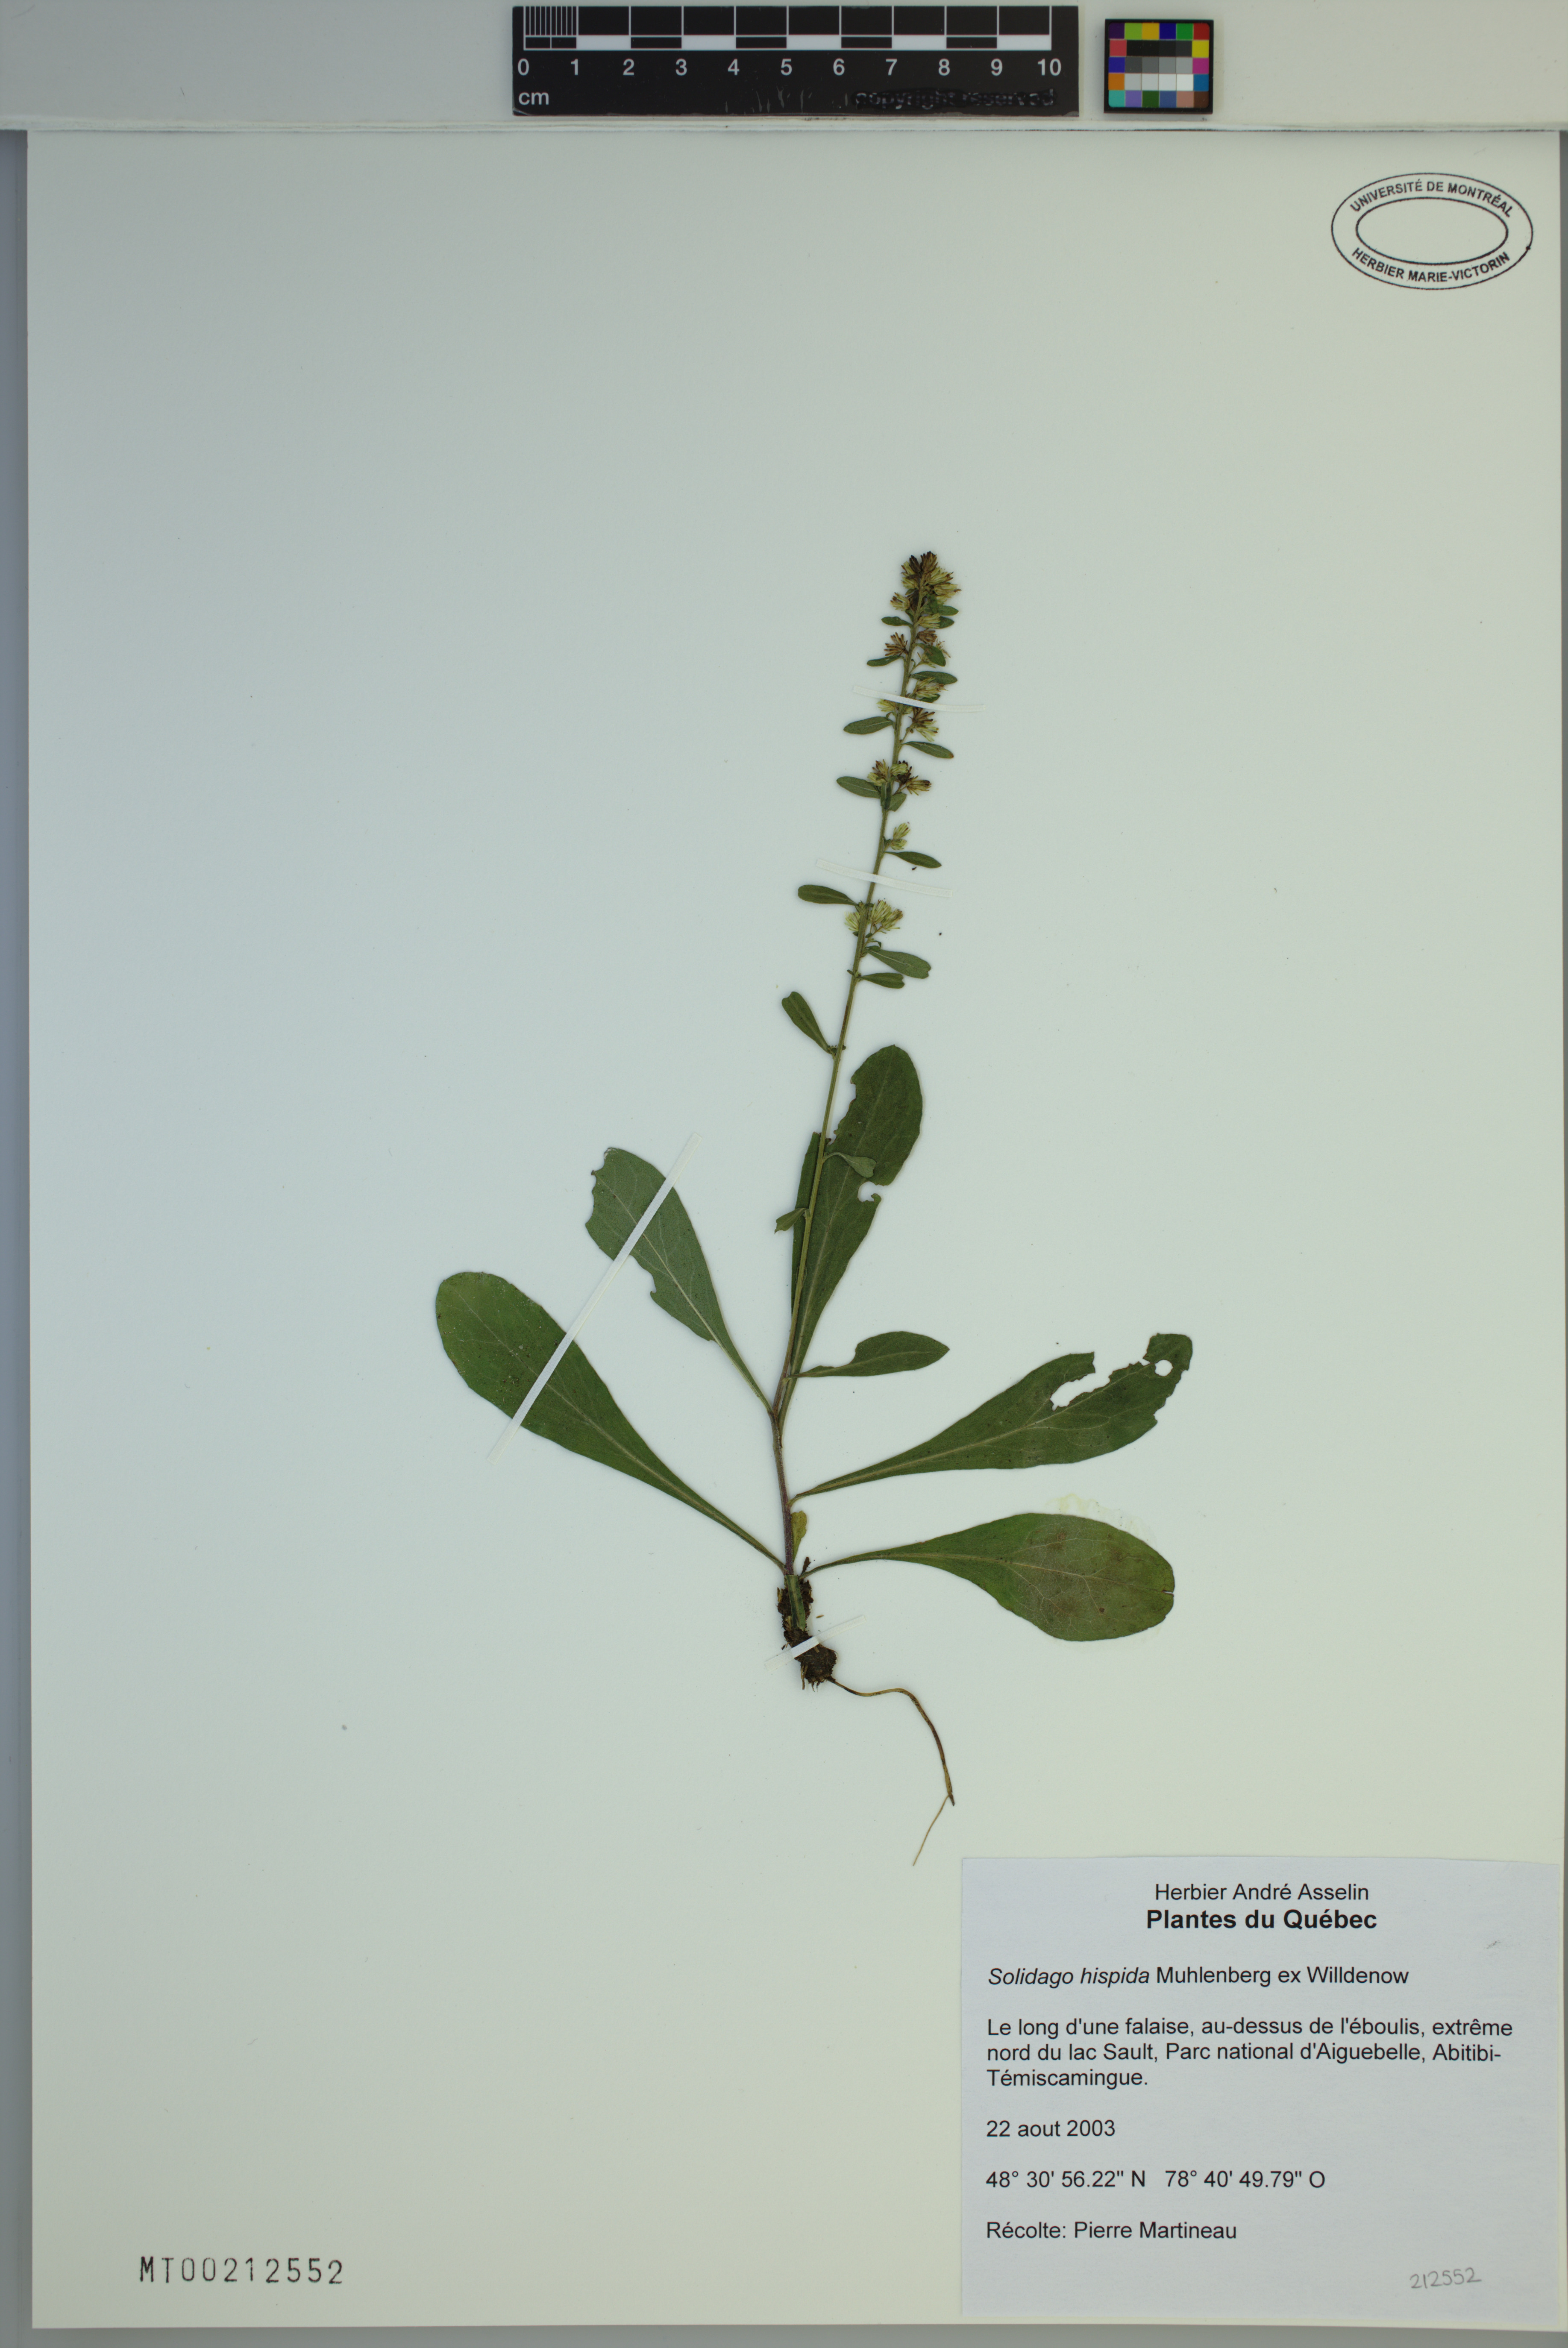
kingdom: Plantae
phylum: Tracheophyta
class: Magnoliopsida
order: Asterales
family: Asteraceae
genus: Solidago
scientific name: Solidago hispida
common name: Hairy goldenrod
